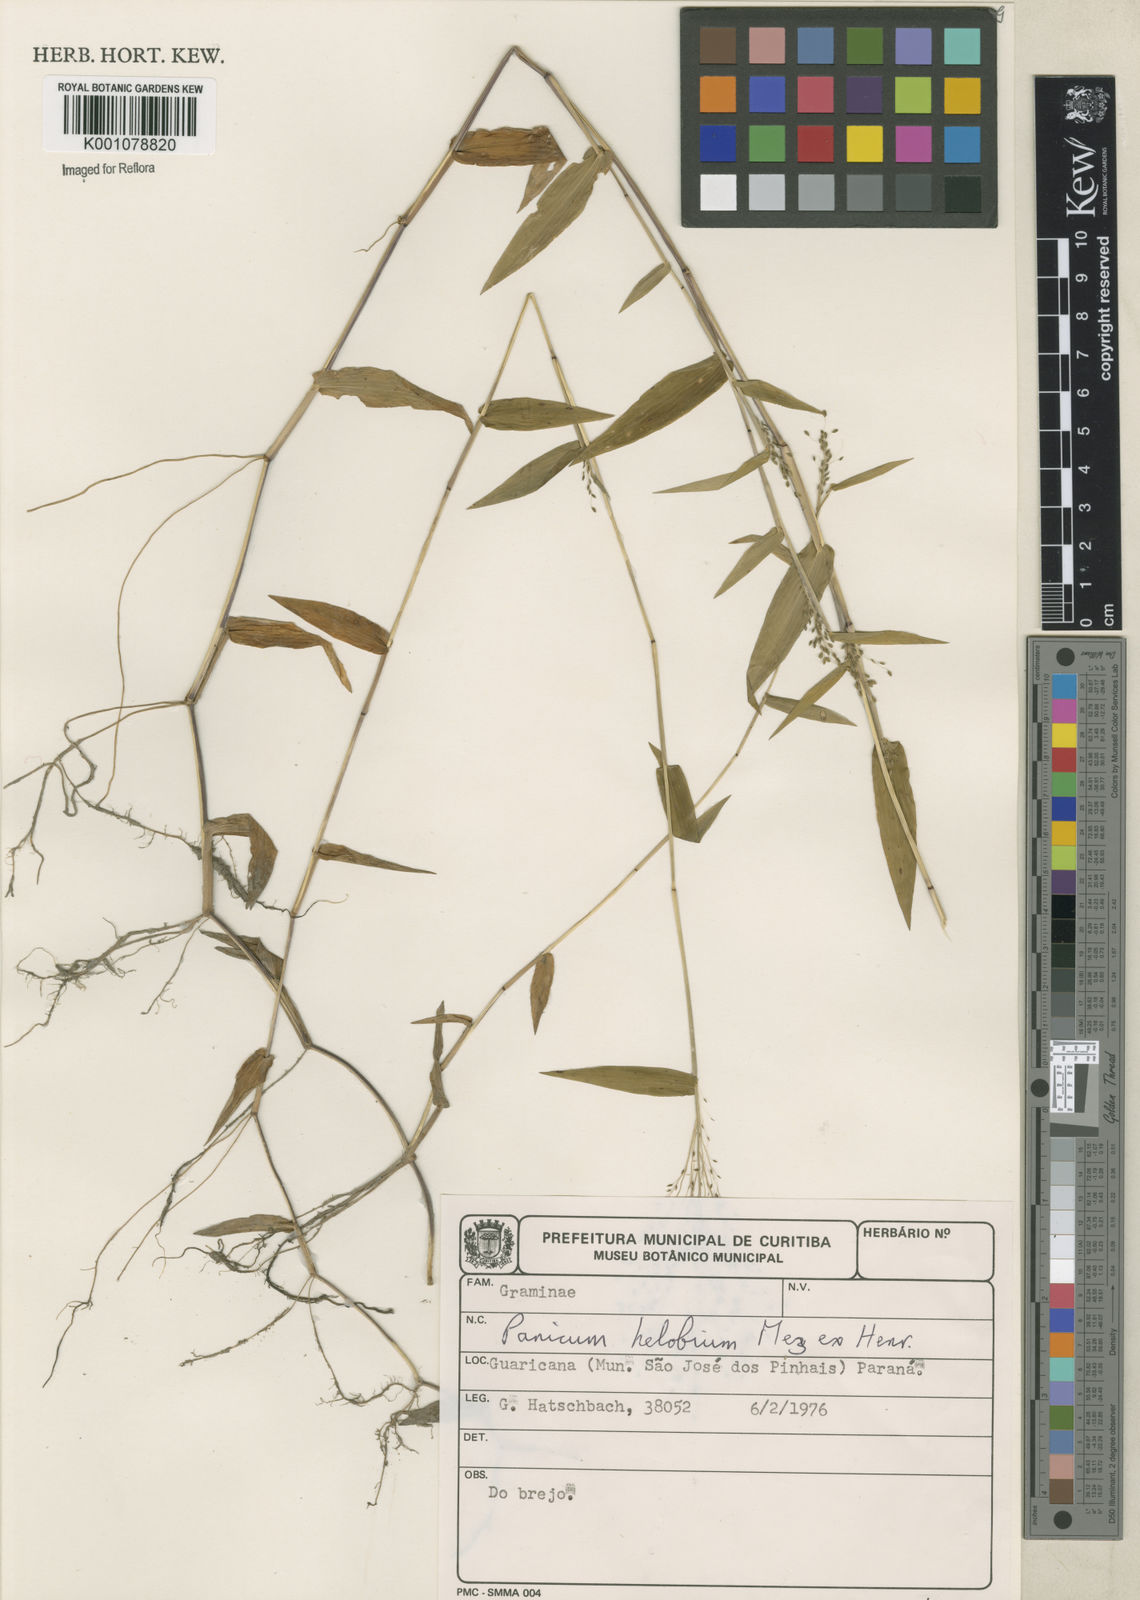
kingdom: Plantae
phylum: Tracheophyta
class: Liliopsida
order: Poales
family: Poaceae
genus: Trichanthecium
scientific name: Trichanthecium schwackeanum
